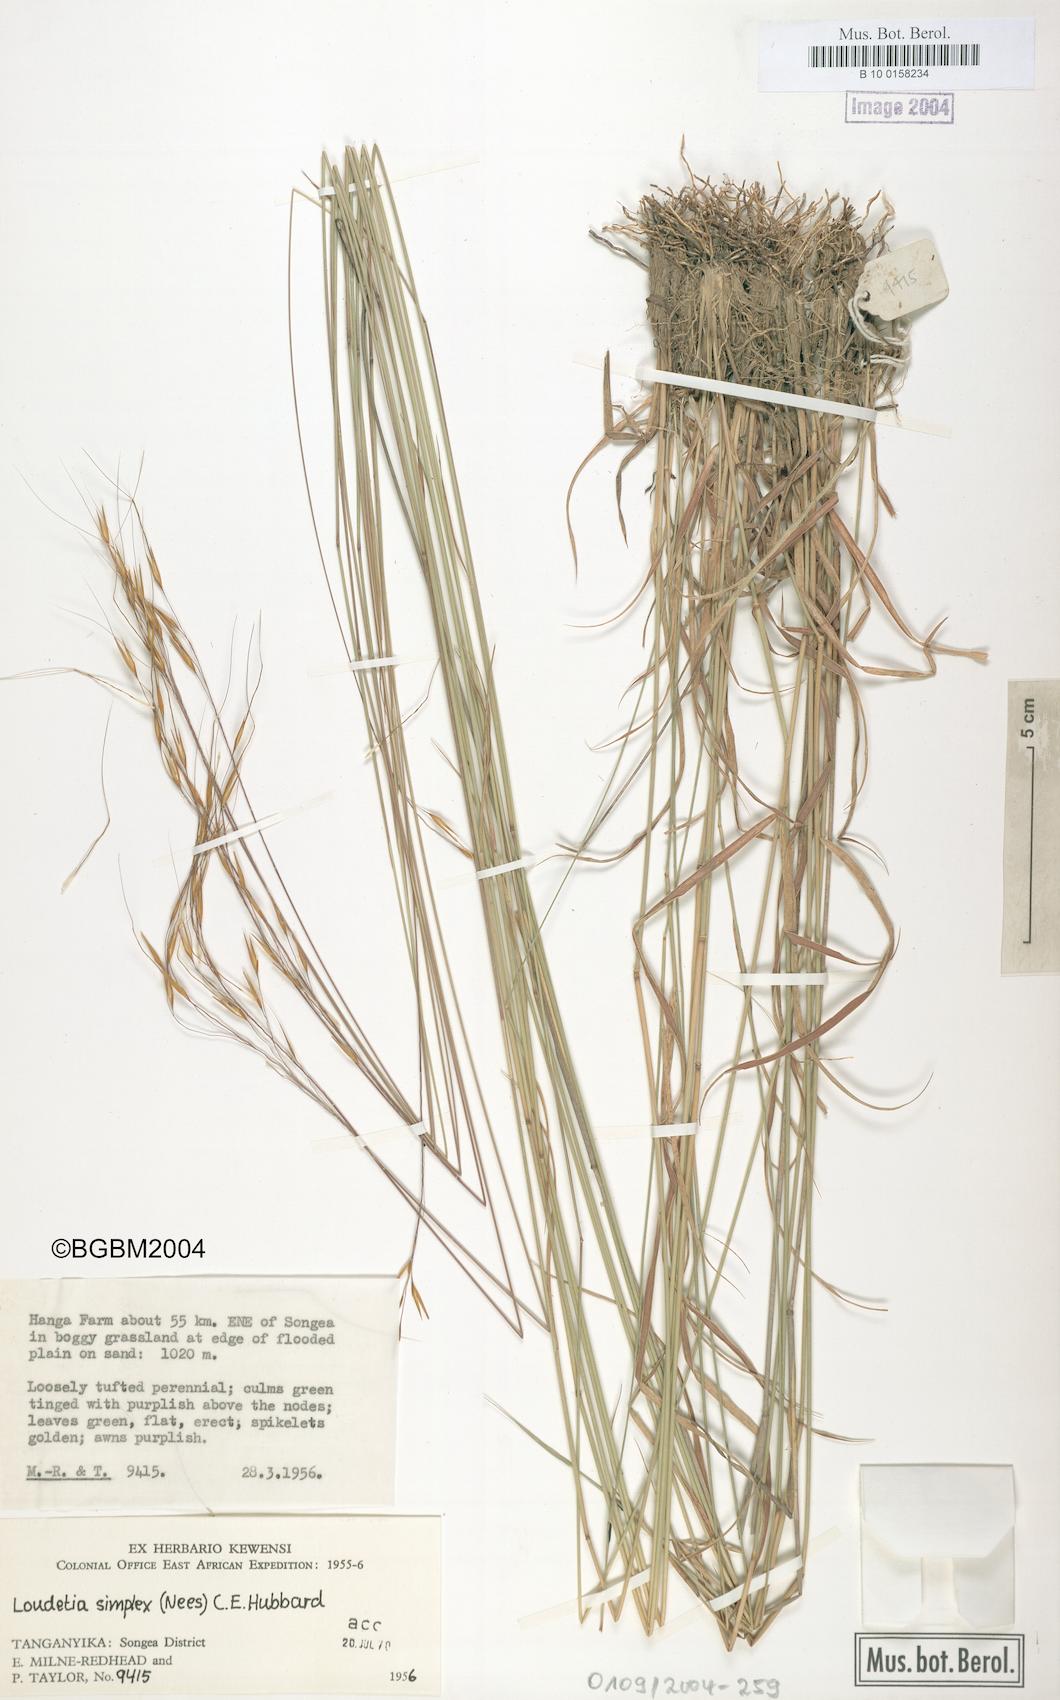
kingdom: Plantae
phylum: Tracheophyta
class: Liliopsida
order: Poales
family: Poaceae
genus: Loudetia
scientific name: Loudetia simplex
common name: Common russet grass
